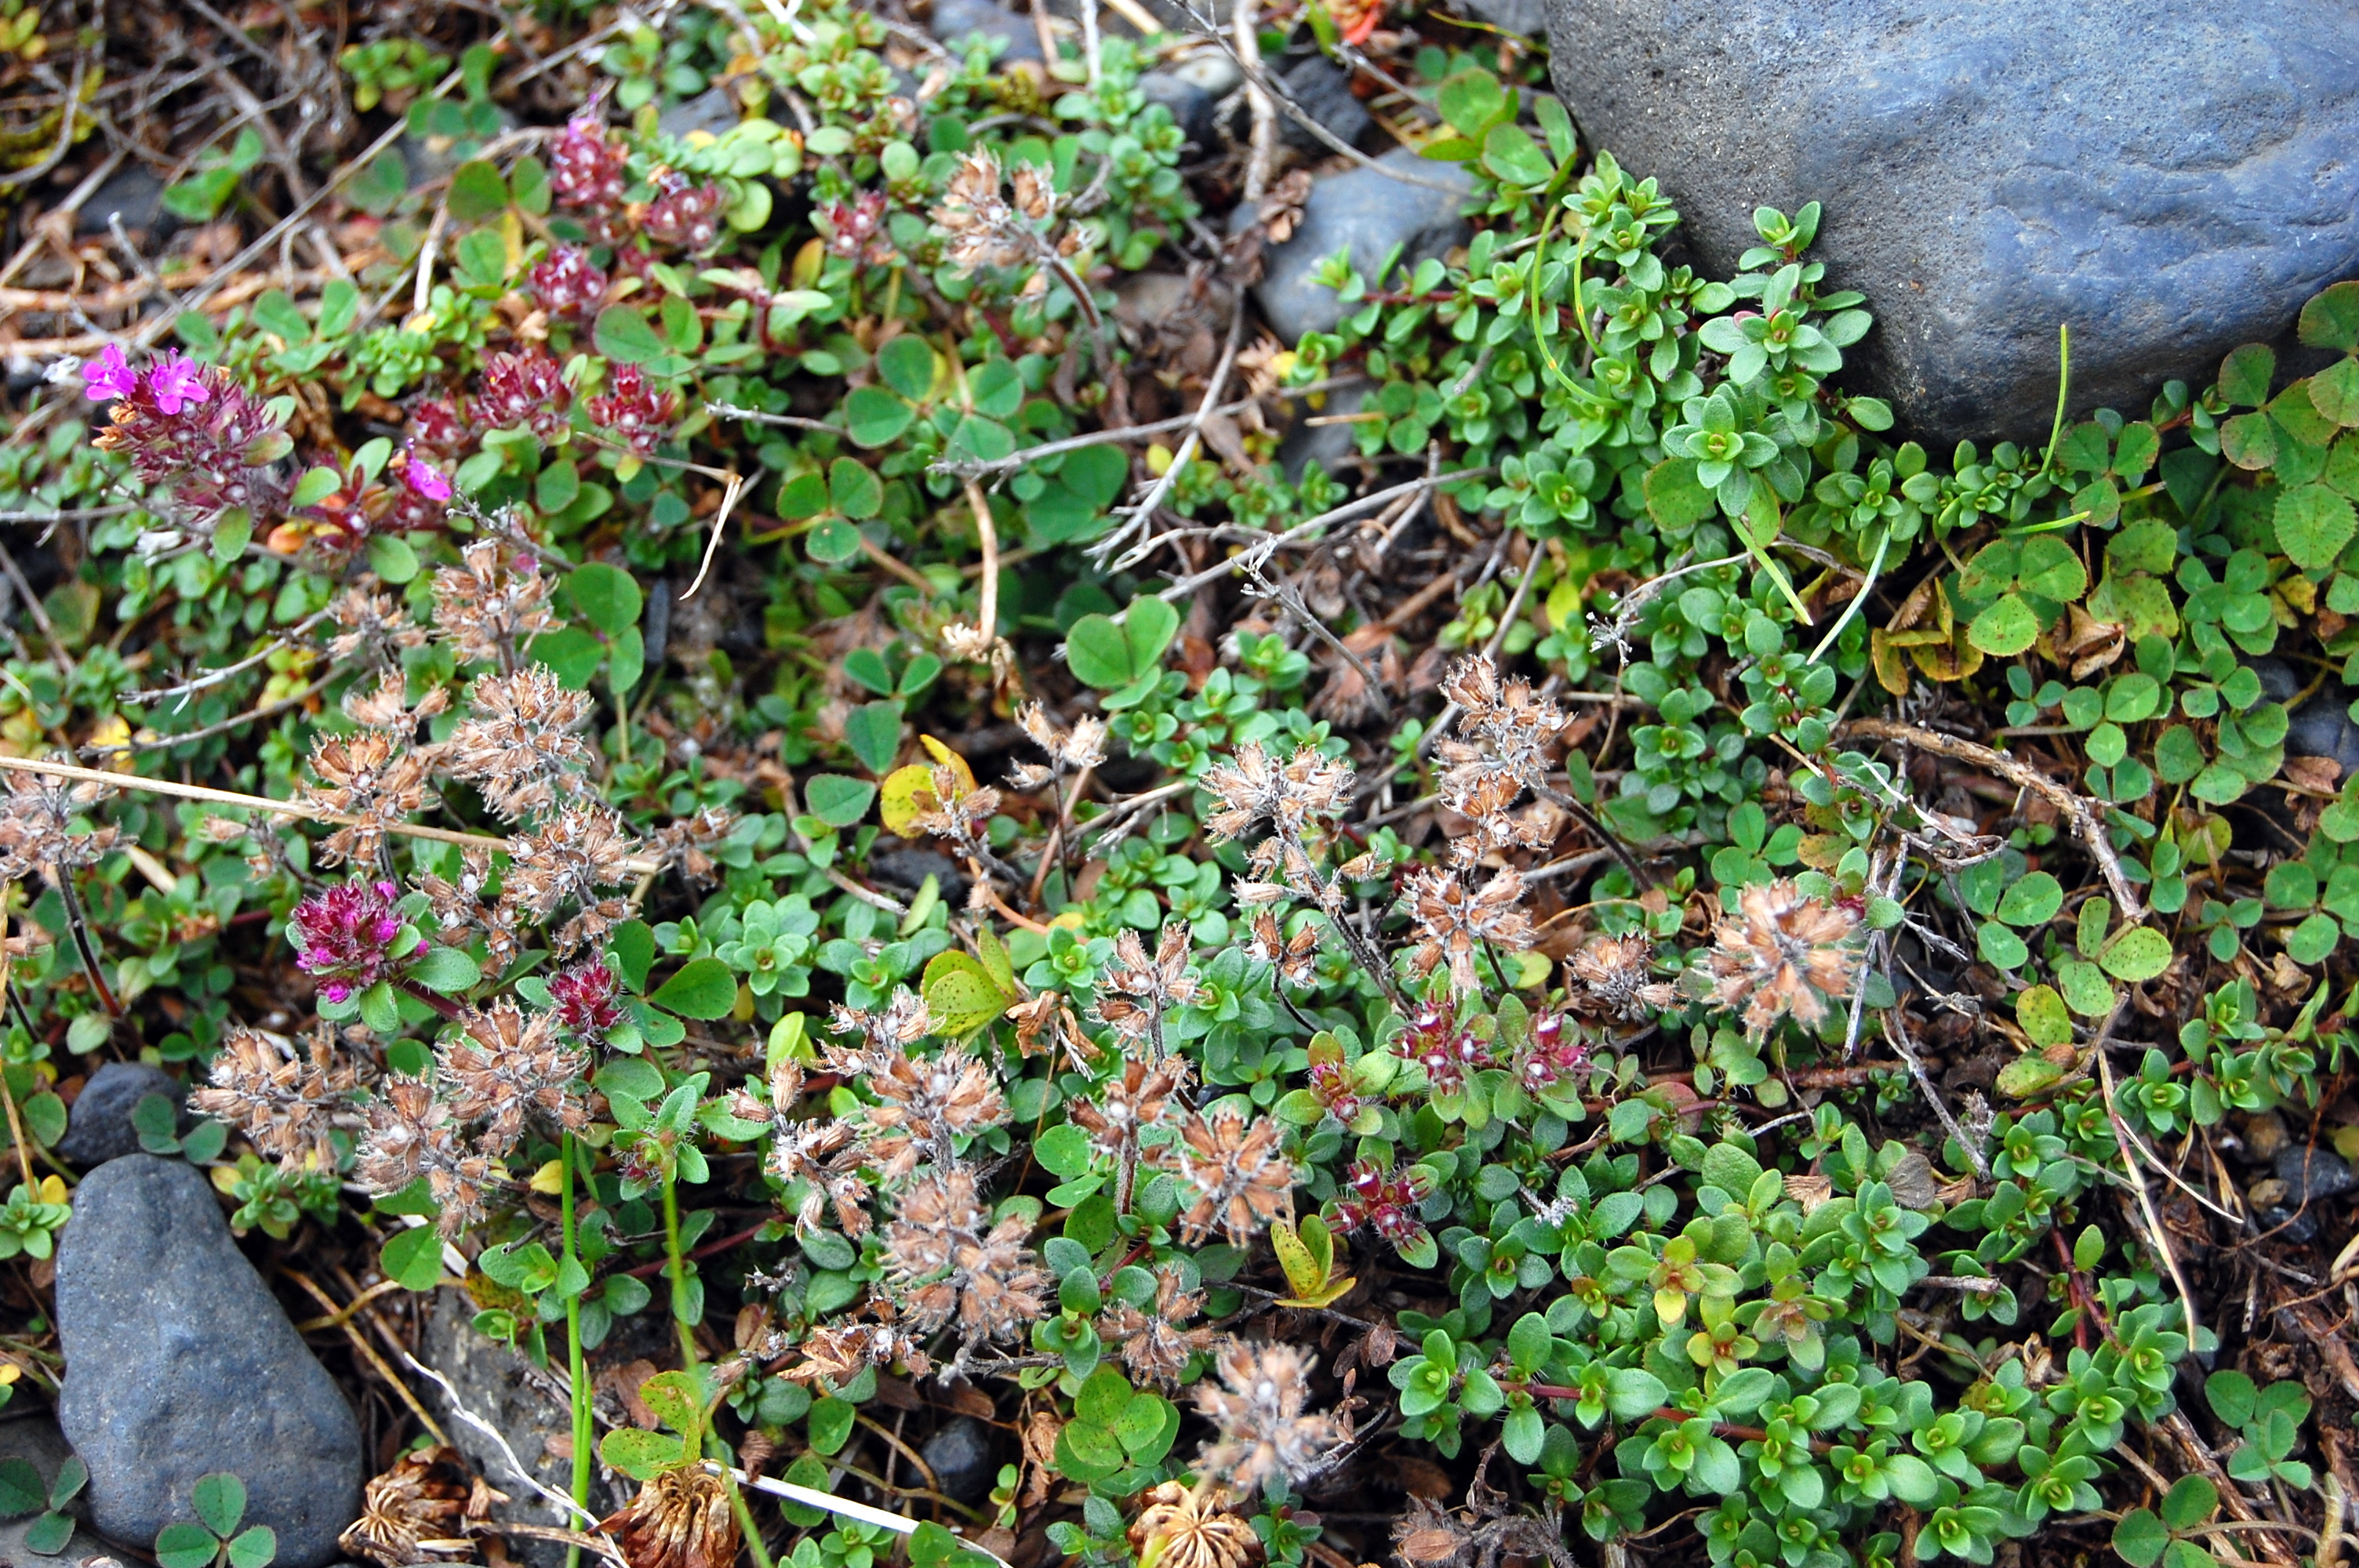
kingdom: Plantae
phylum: Tracheophyta
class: Magnoliopsida
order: Lamiales
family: Lamiaceae
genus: Thymus
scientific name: Thymus praecox
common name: Wild thyme
